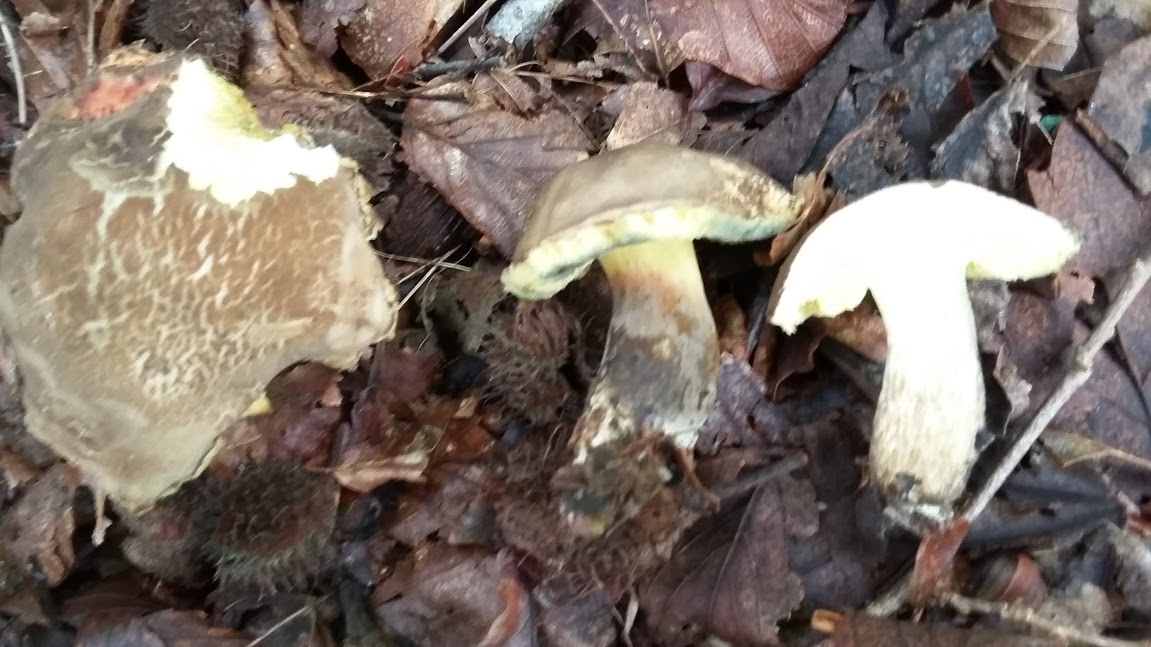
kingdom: Fungi
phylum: Basidiomycota
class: Agaricomycetes
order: Boletales
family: Boletaceae
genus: Xerocomellus
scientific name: Xerocomellus porosporus
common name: hvidsprukken rørhat
